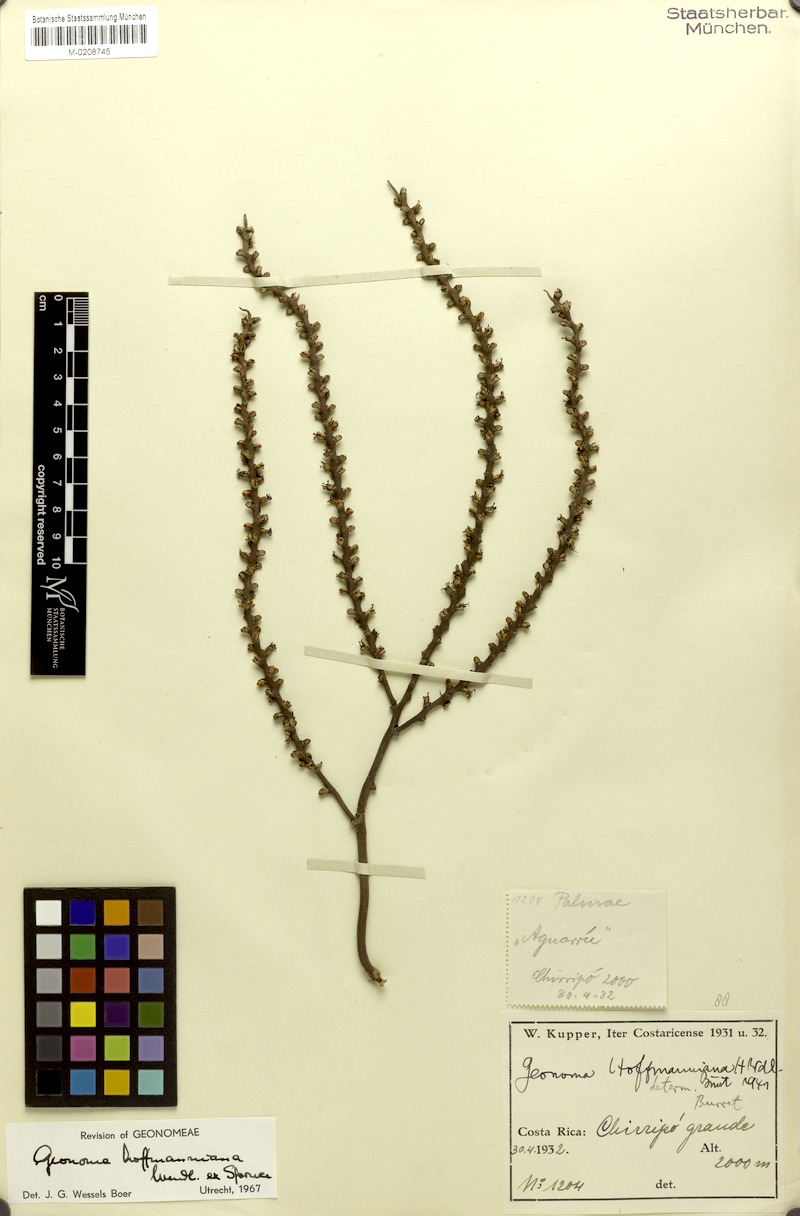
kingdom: Plantae
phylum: Tracheophyta
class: Liliopsida
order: Arecales
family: Arecaceae
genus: Geonoma
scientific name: Geonoma orbignyana
